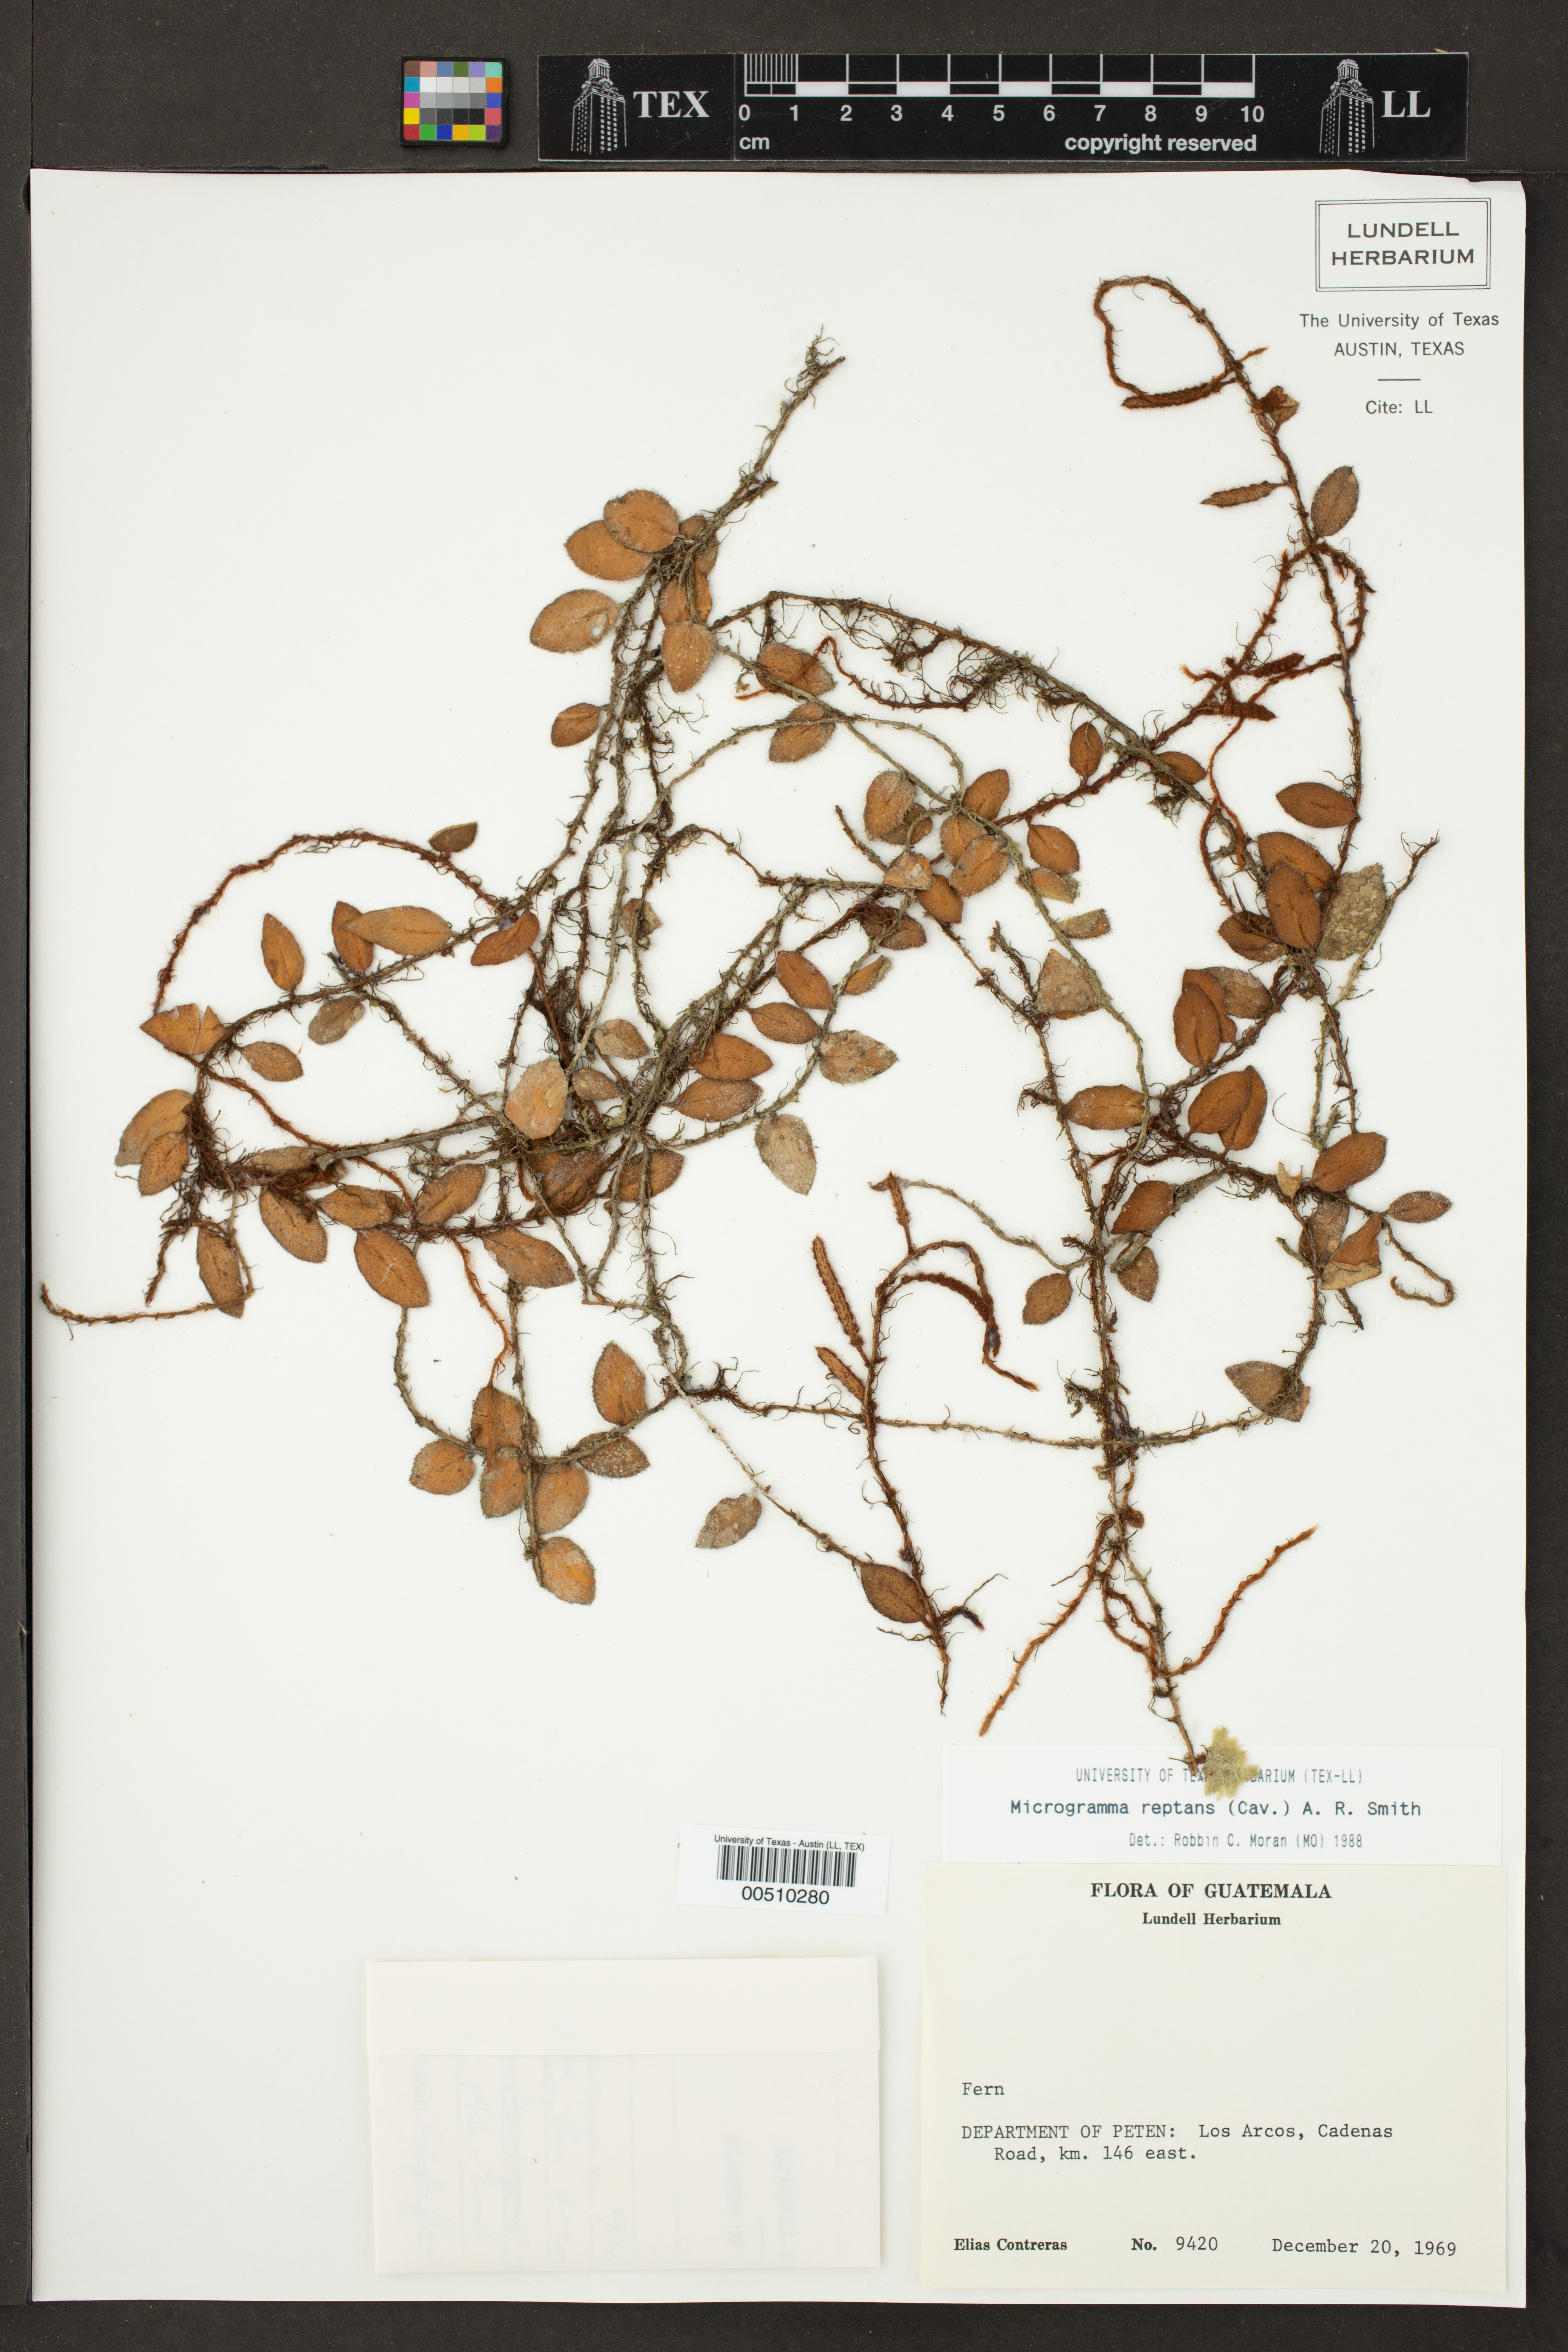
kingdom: Plantae
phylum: Tracheophyta
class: Polypodiopsida
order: Polypodiales
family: Polypodiaceae
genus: Microgramma
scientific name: Microgramma reptans
